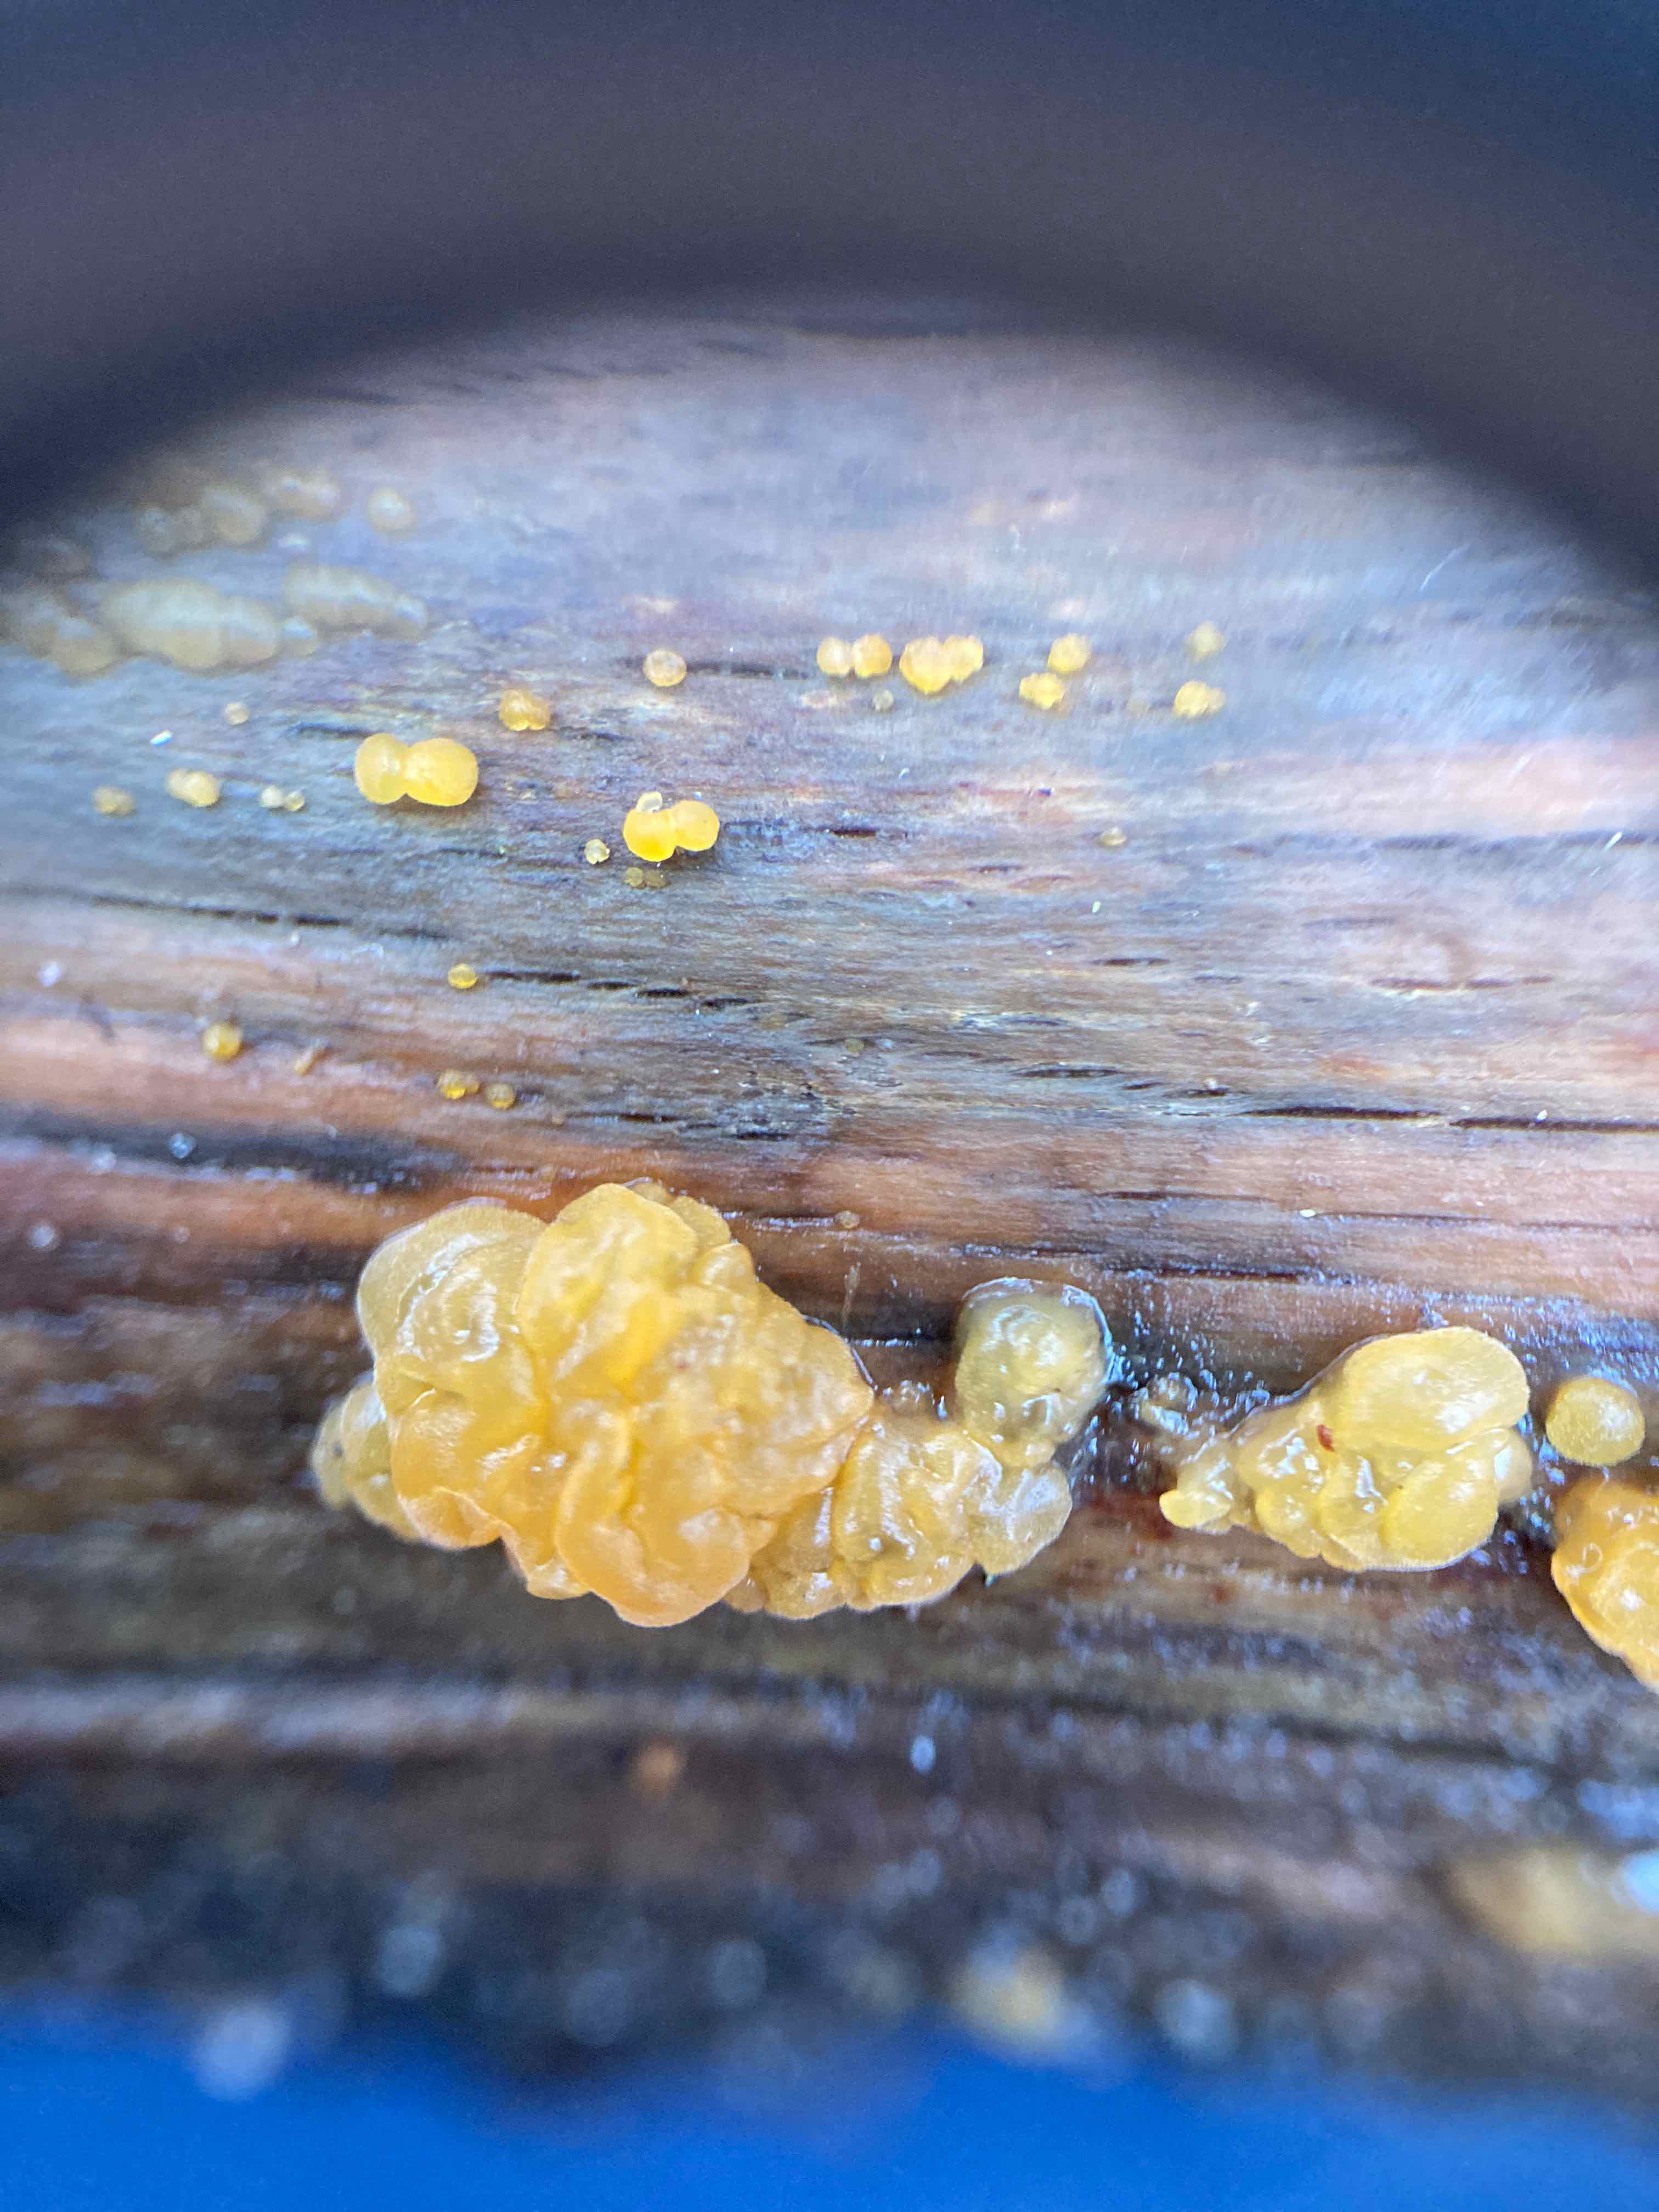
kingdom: Fungi
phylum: Basidiomycota
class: Dacrymycetes
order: Dacrymycetales
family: Dacrymycetaceae
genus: Dacrymyces
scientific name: Dacrymyces lacrymalis
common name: rynket tåresvamp
